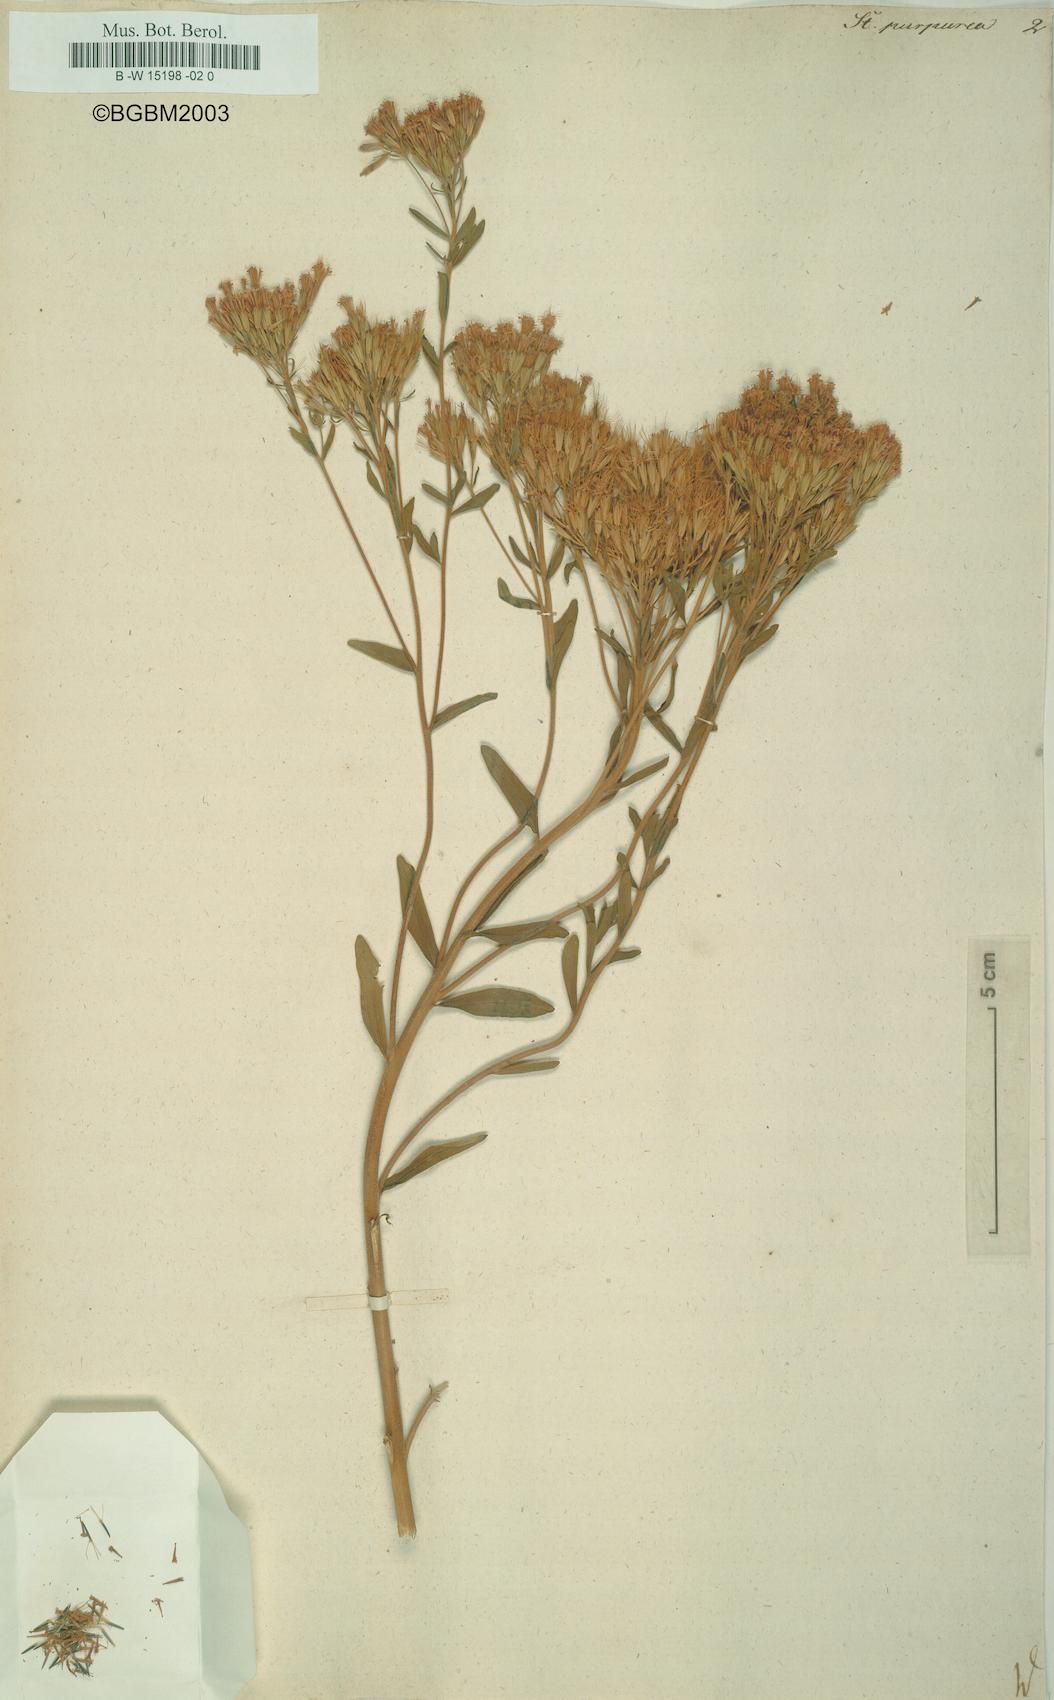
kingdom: Plantae
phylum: Tracheophyta
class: Magnoliopsida
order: Asterales
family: Asteraceae
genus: Stevia
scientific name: Stevia stricta
